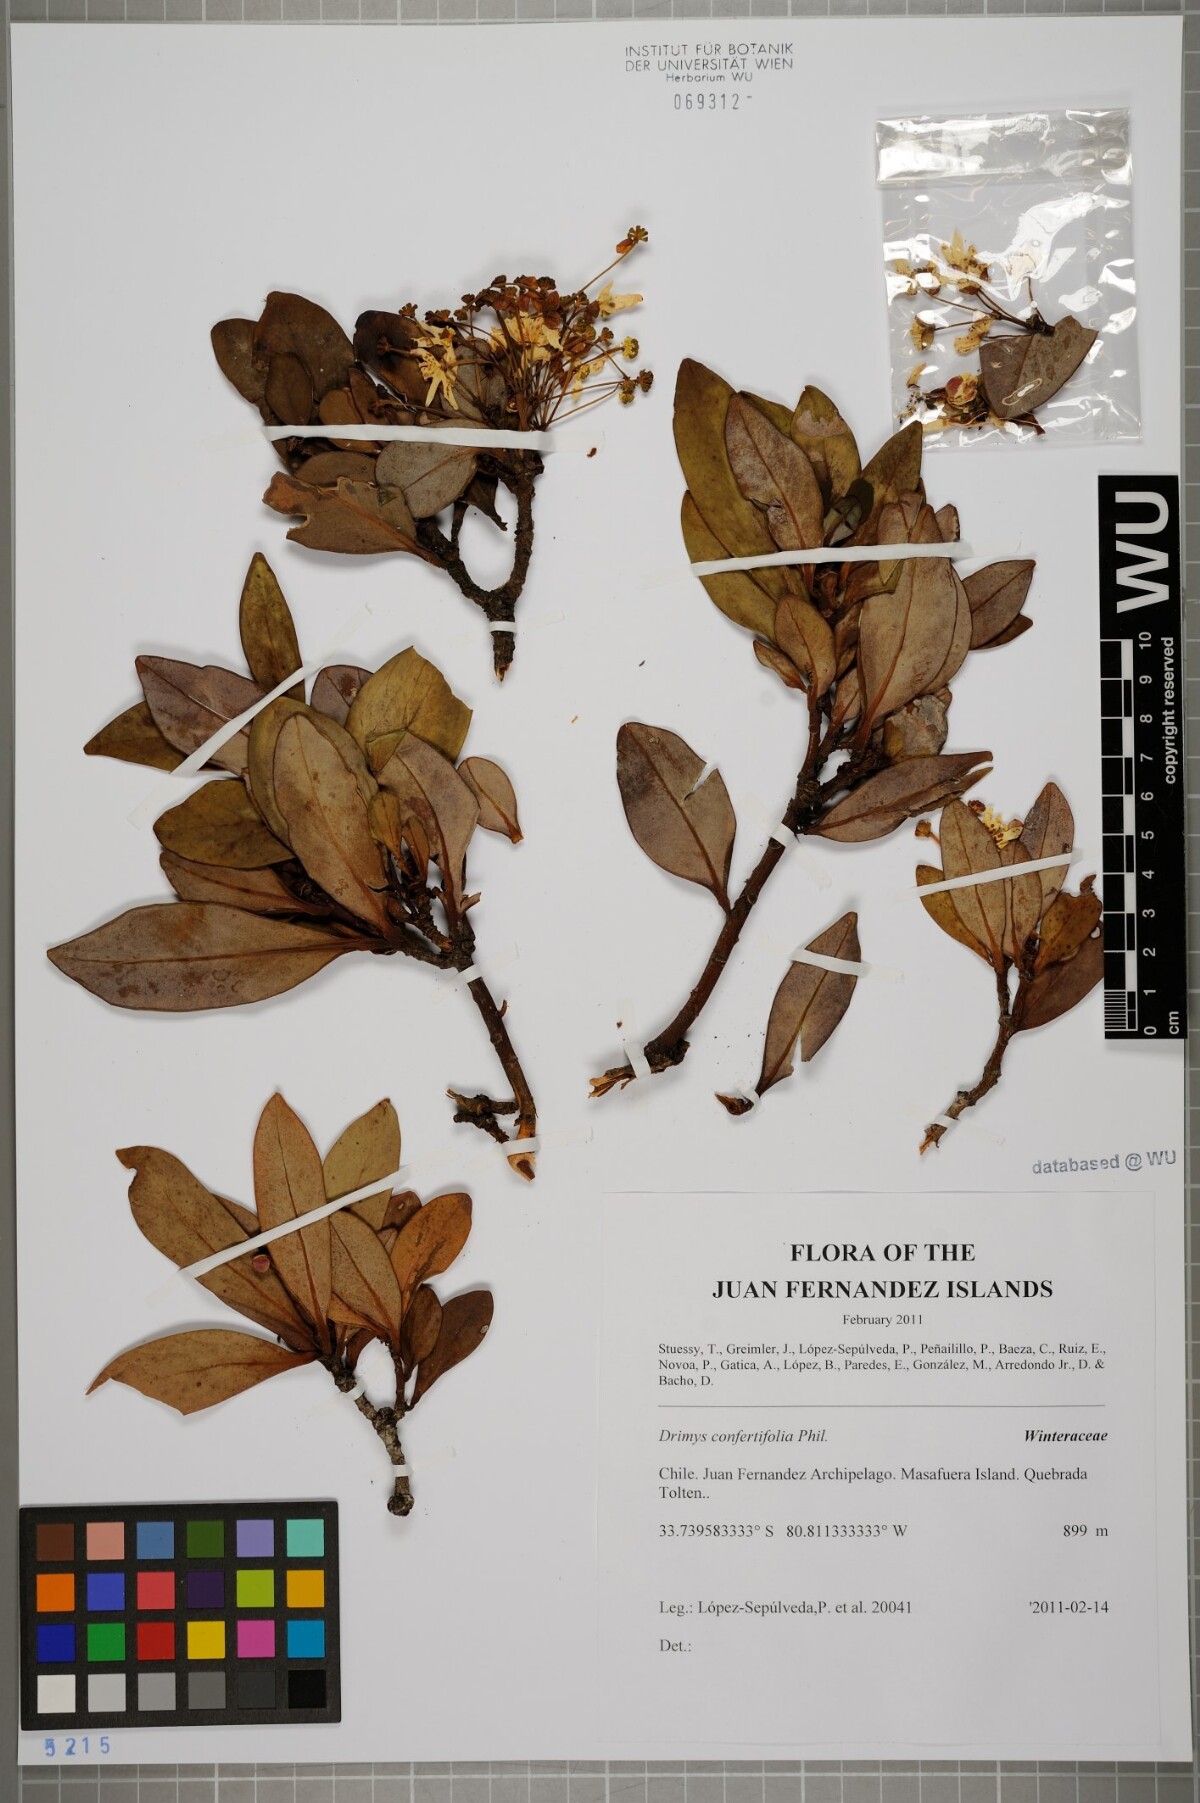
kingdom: Plantae
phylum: Tracheophyta
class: Magnoliopsida
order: Canellales
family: Winteraceae
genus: Drimys
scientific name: Drimys confertiflora
